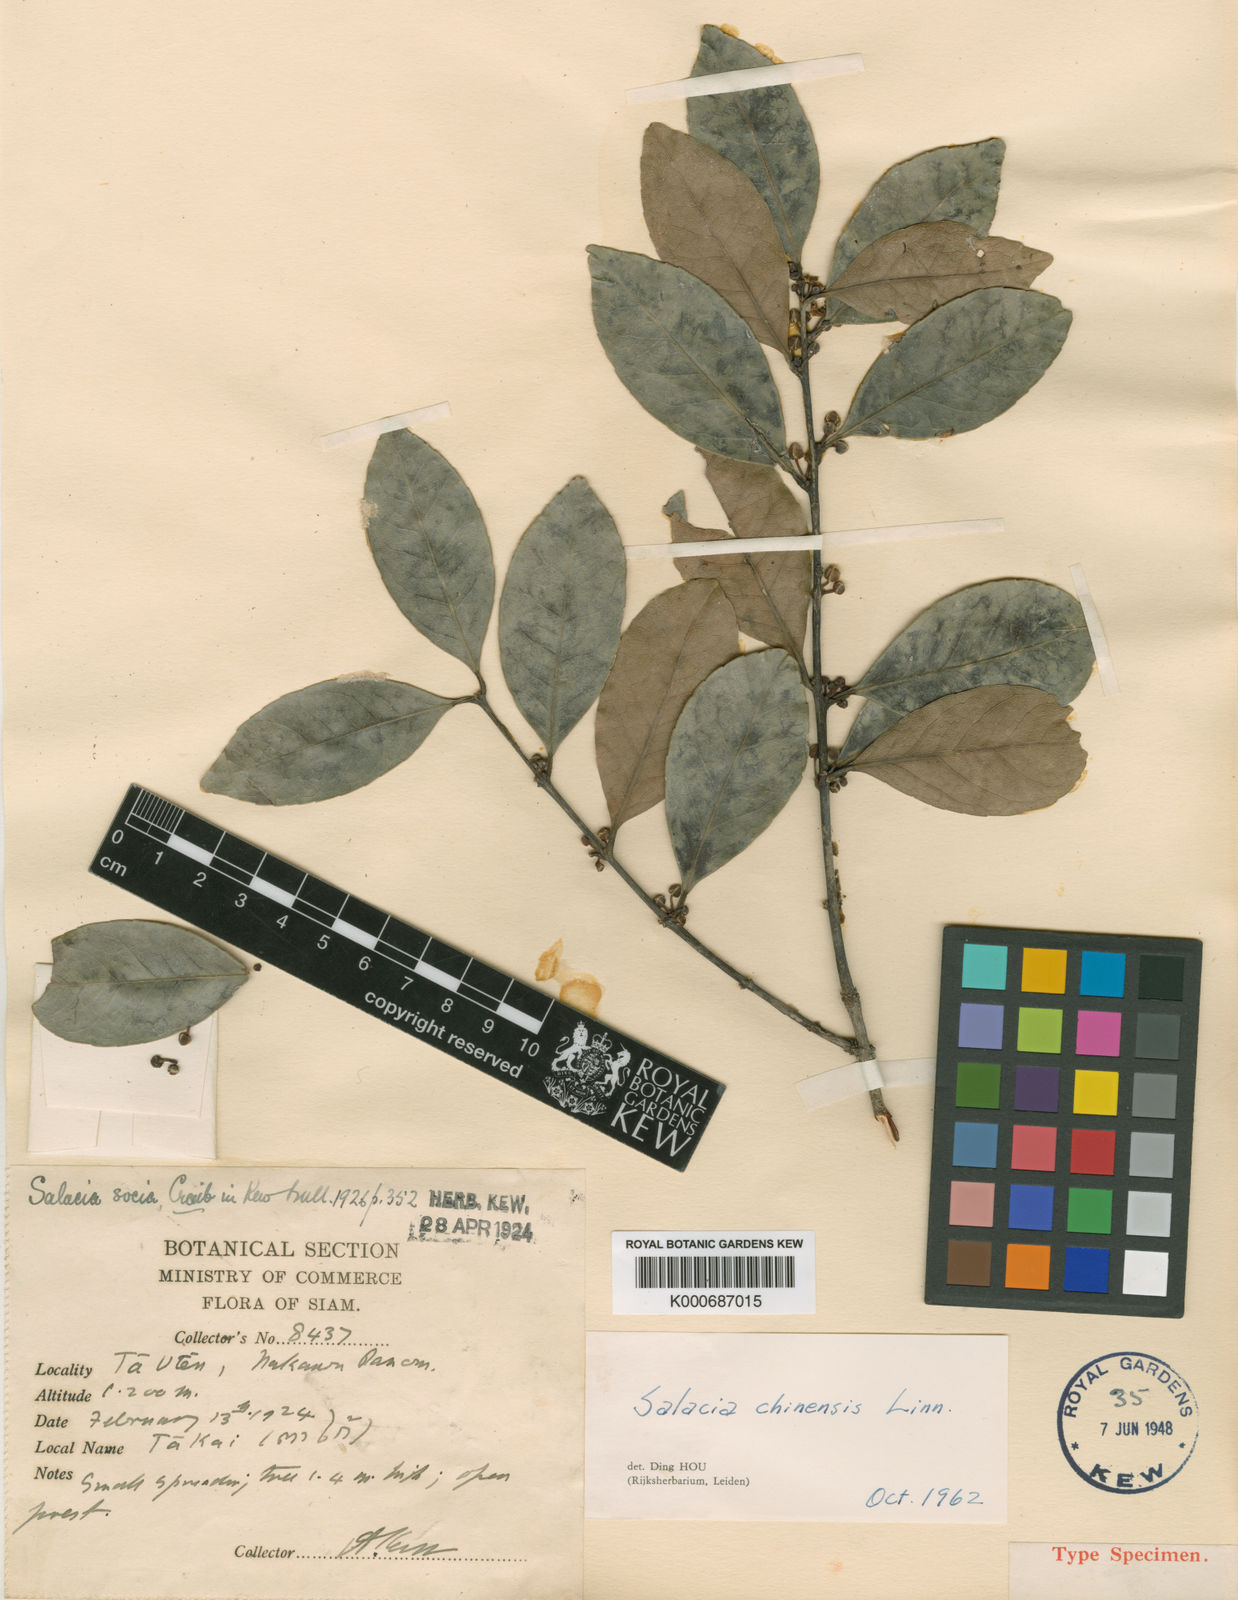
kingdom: Plantae
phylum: Tracheophyta
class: Magnoliopsida
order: Celastrales
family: Celastraceae
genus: Salacia
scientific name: Salacia chinensis
